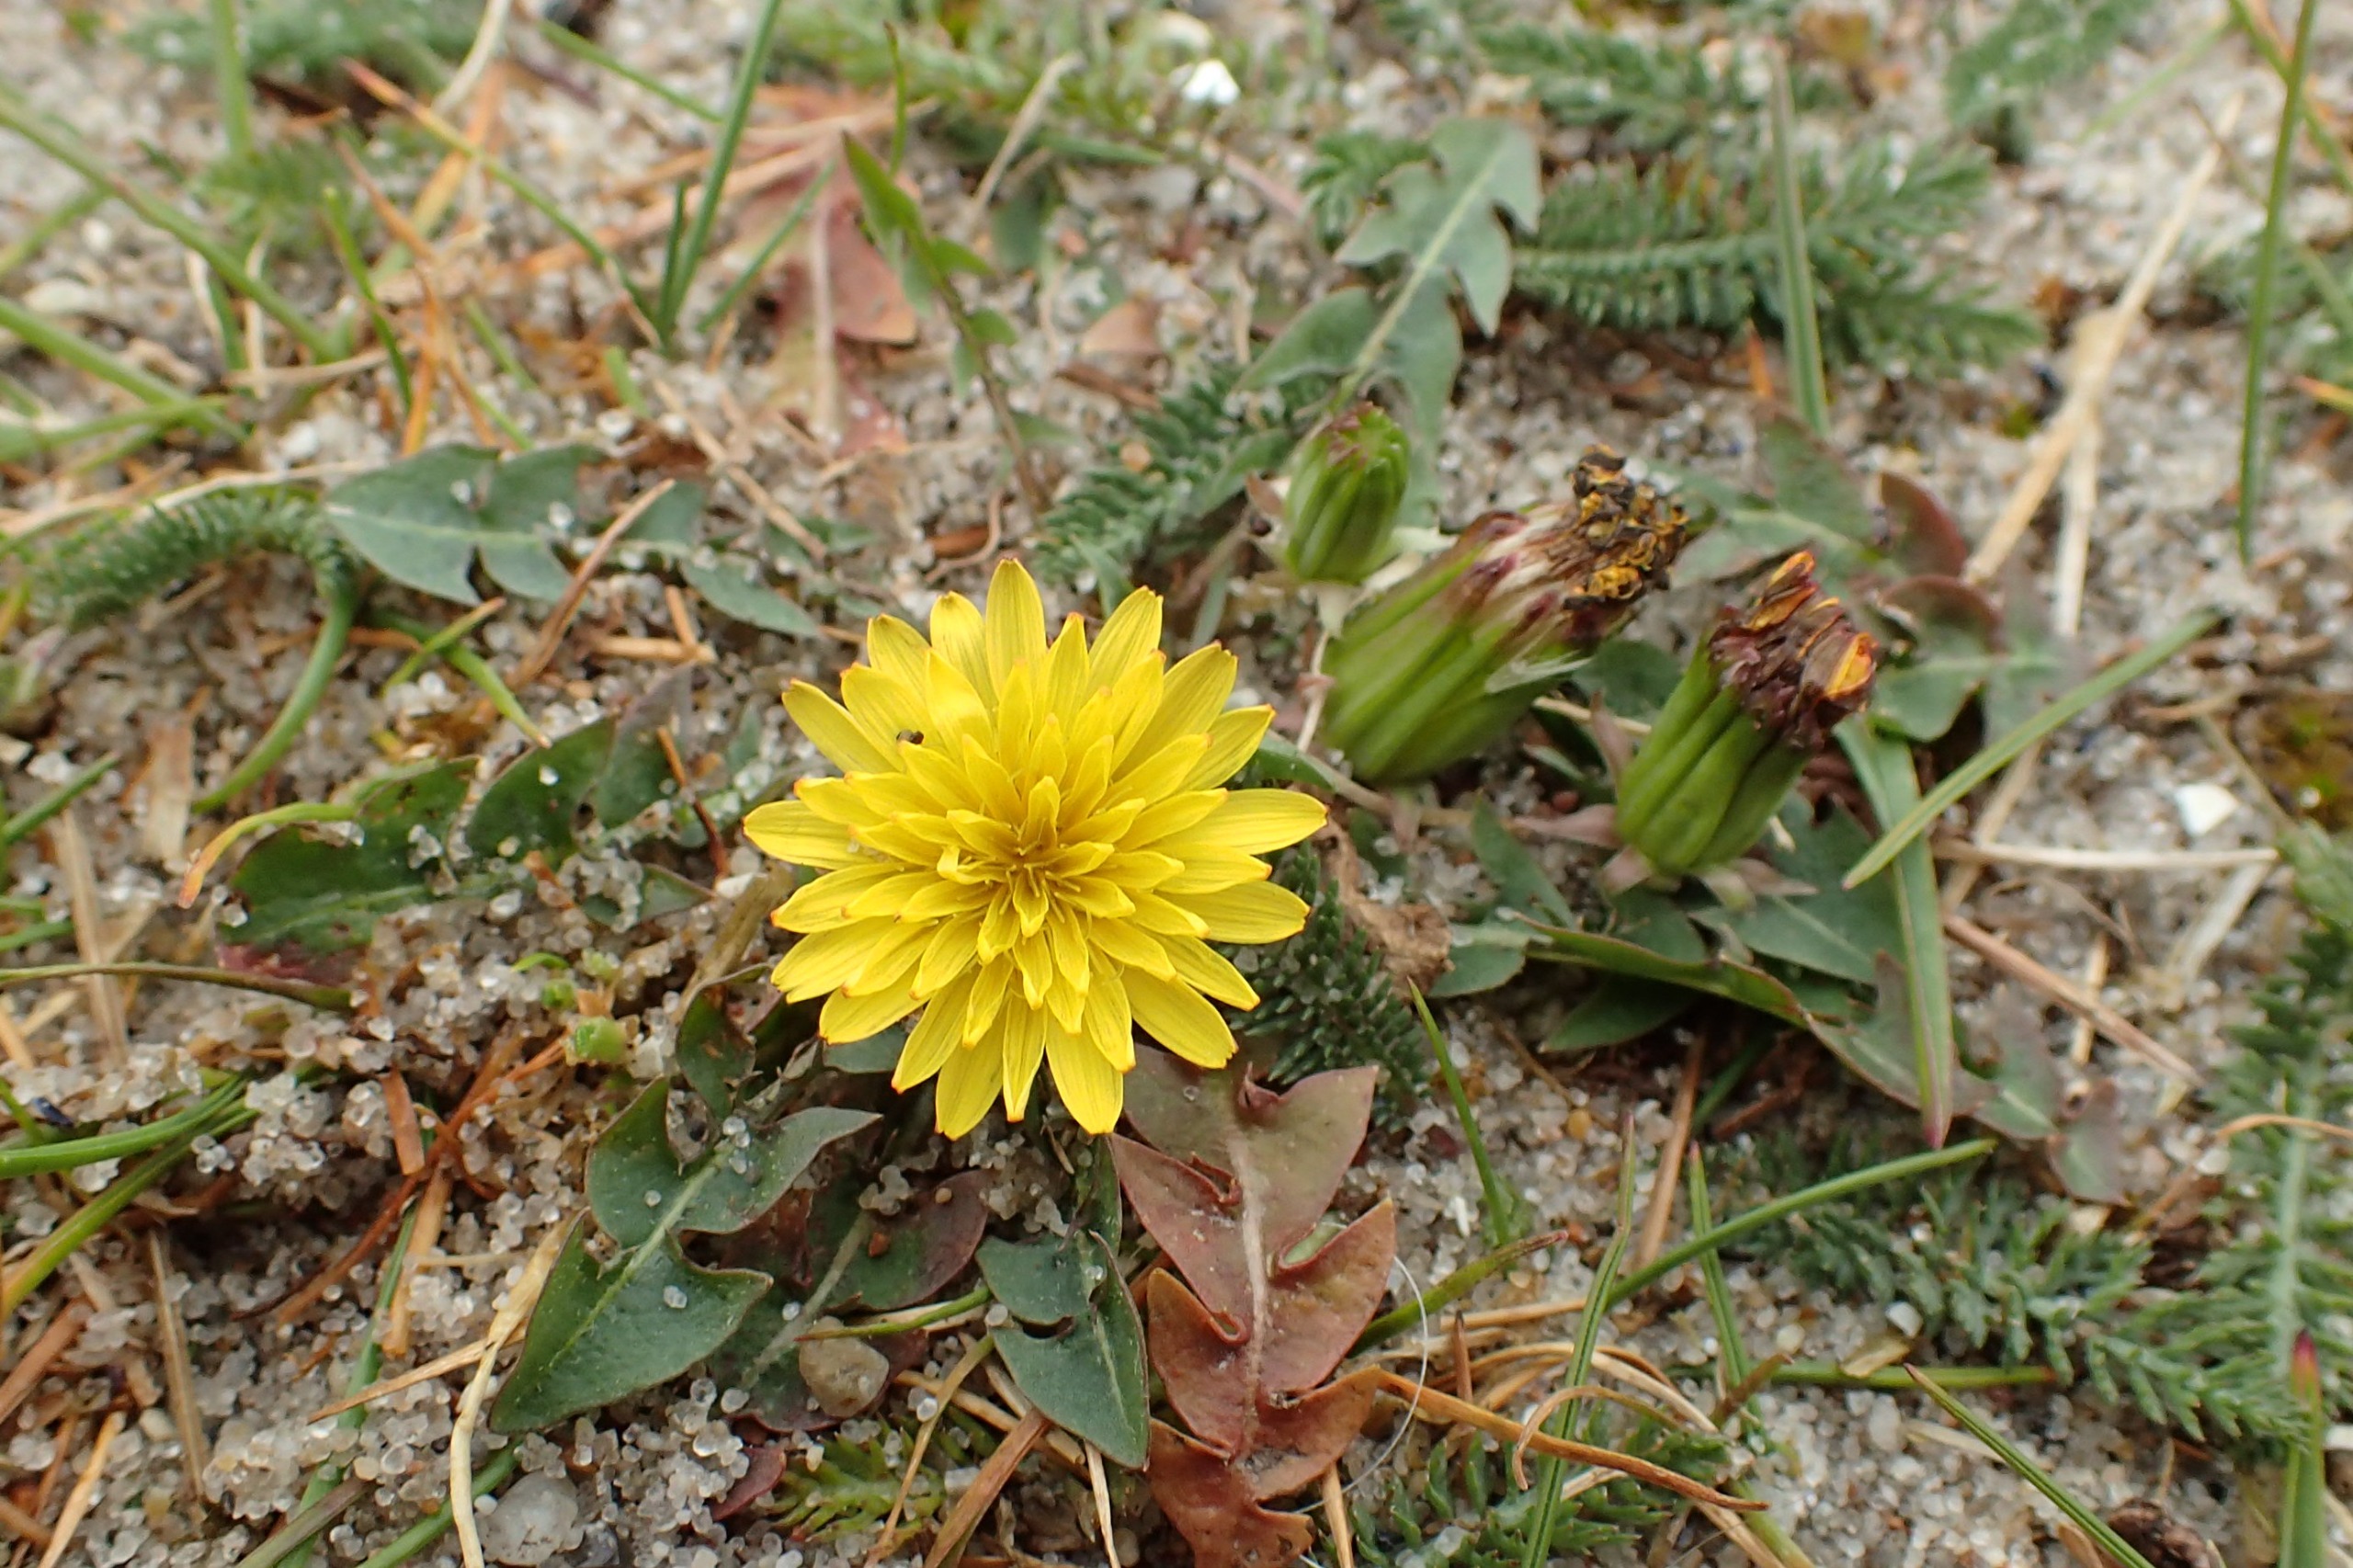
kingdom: Plantae
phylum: Tracheophyta
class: Magnoliopsida
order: Asterales
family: Asteraceae
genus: Taraxacum
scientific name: Taraxacum parnassicum
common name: Parnas-sandmælkebøtte
